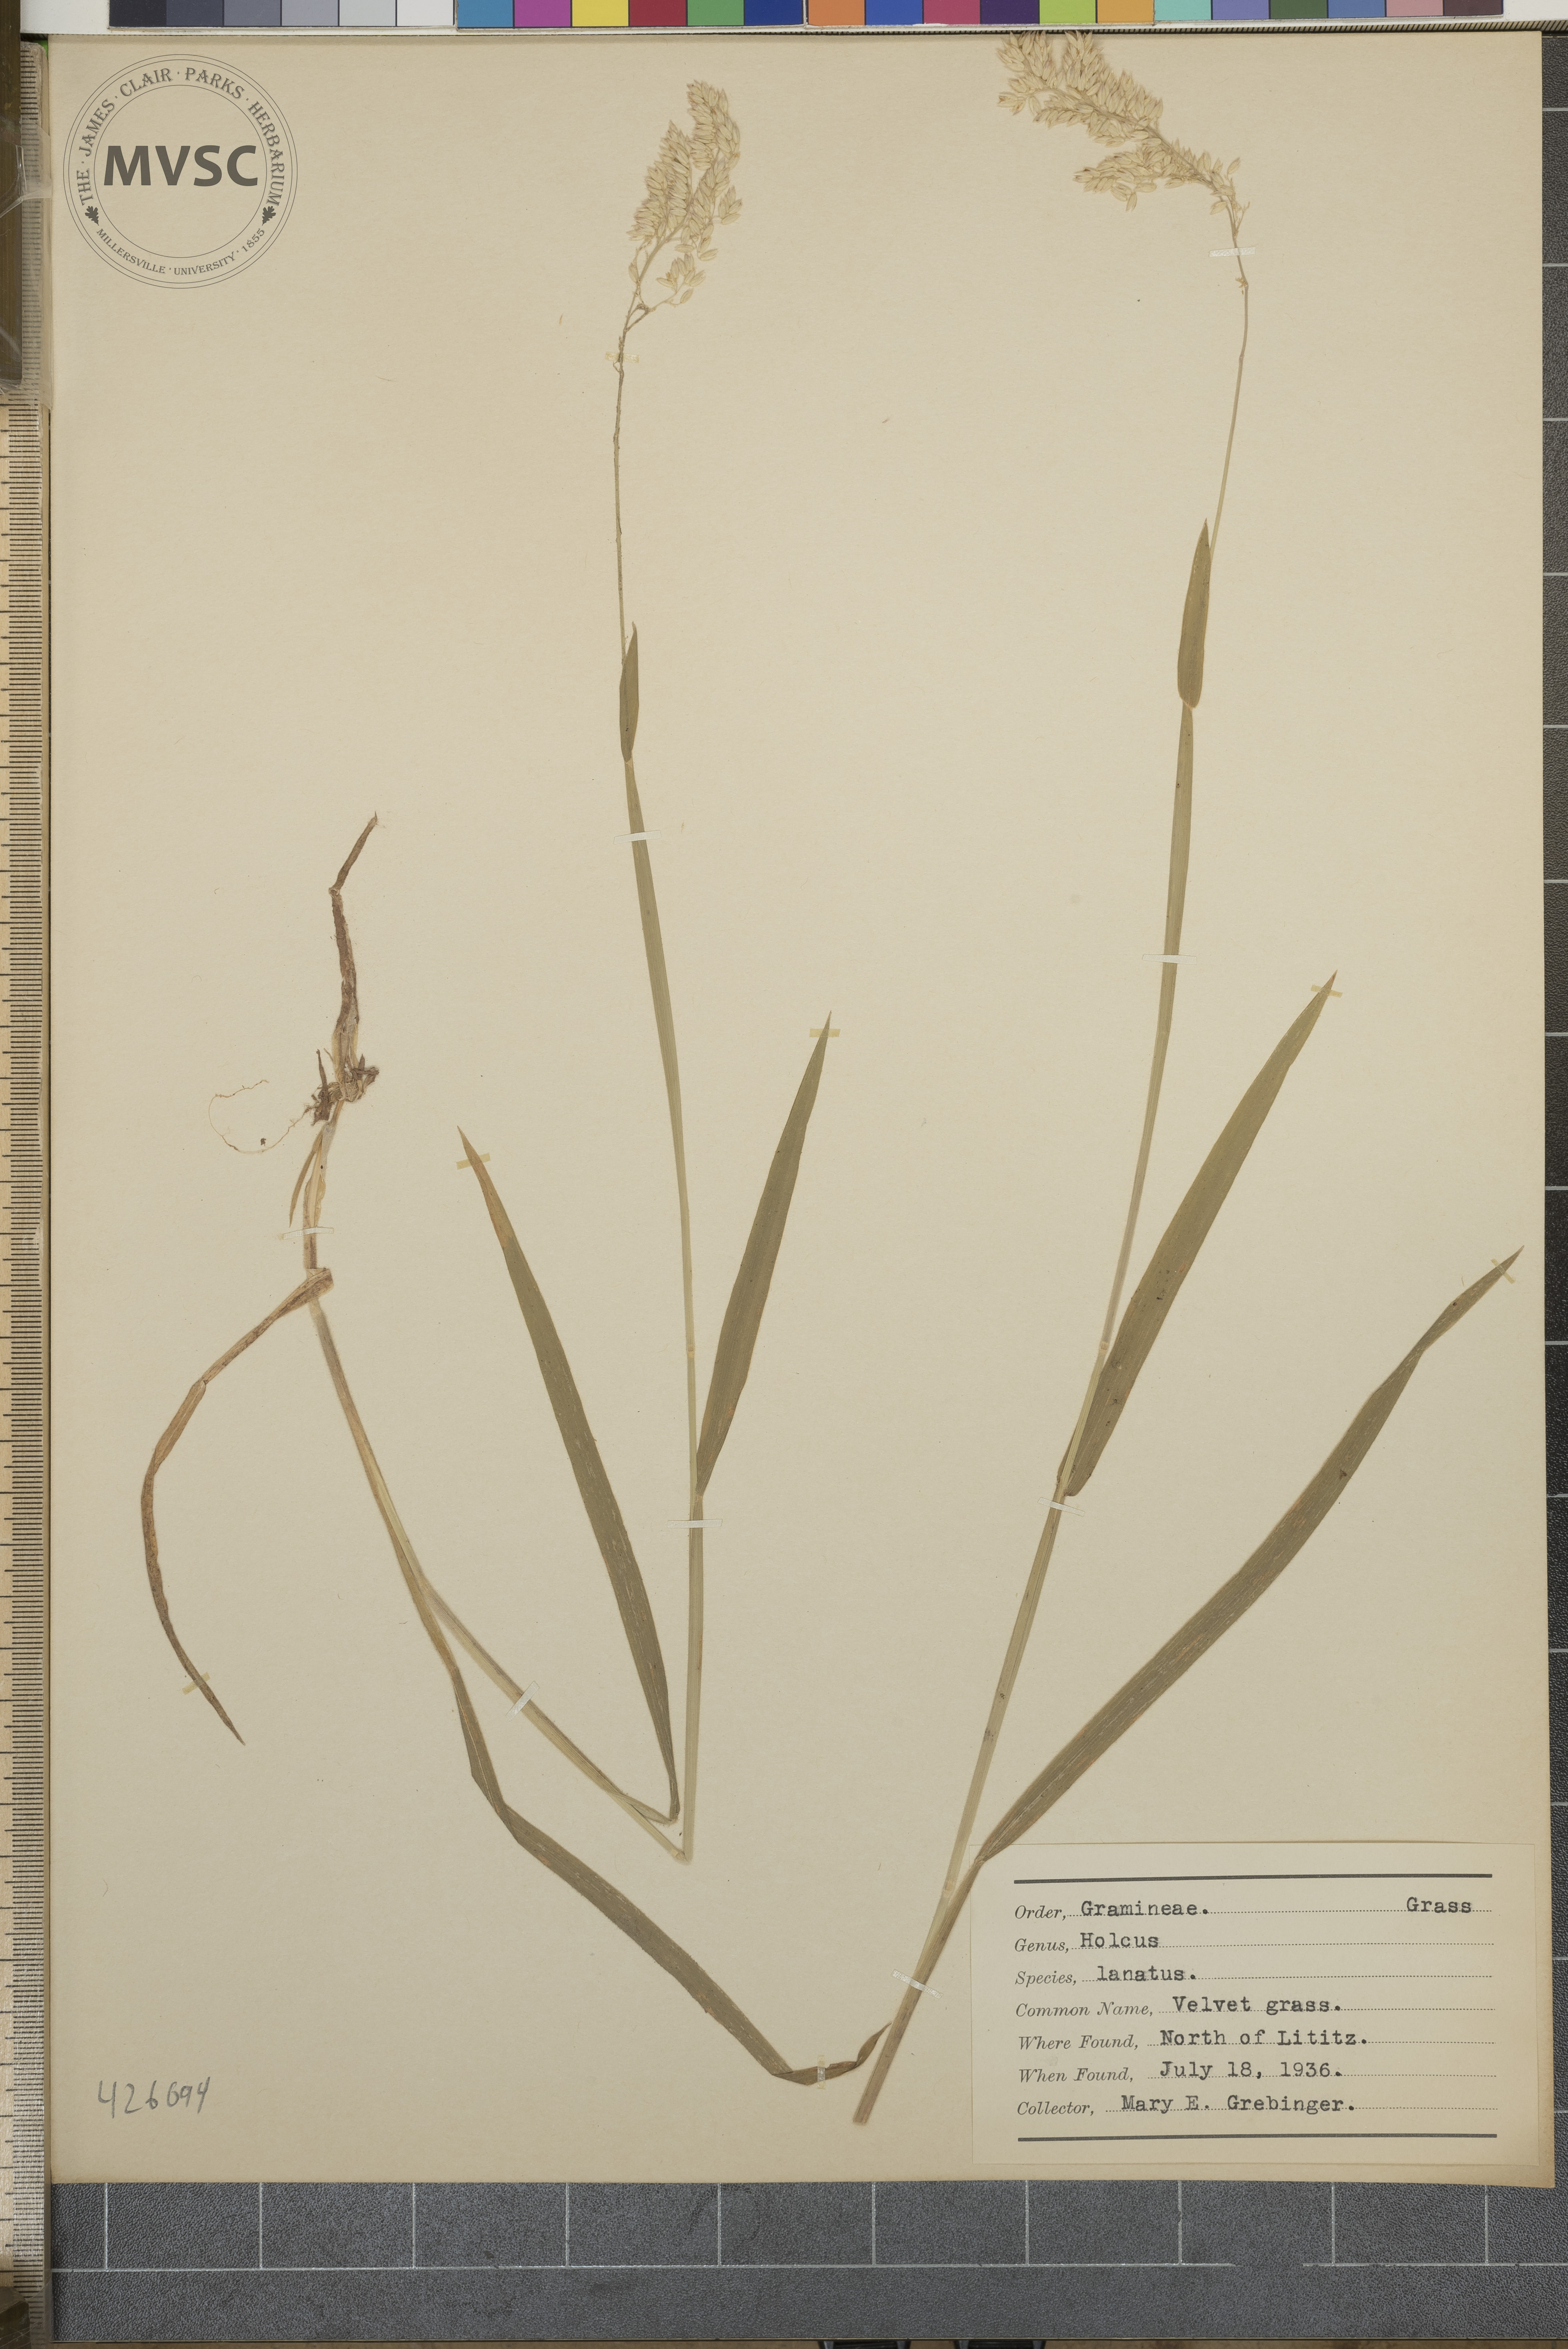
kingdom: Plantae
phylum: Tracheophyta
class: Liliopsida
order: Poales
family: Poaceae
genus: Holcus
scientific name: Holcus lanatus
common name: Velvet grass
